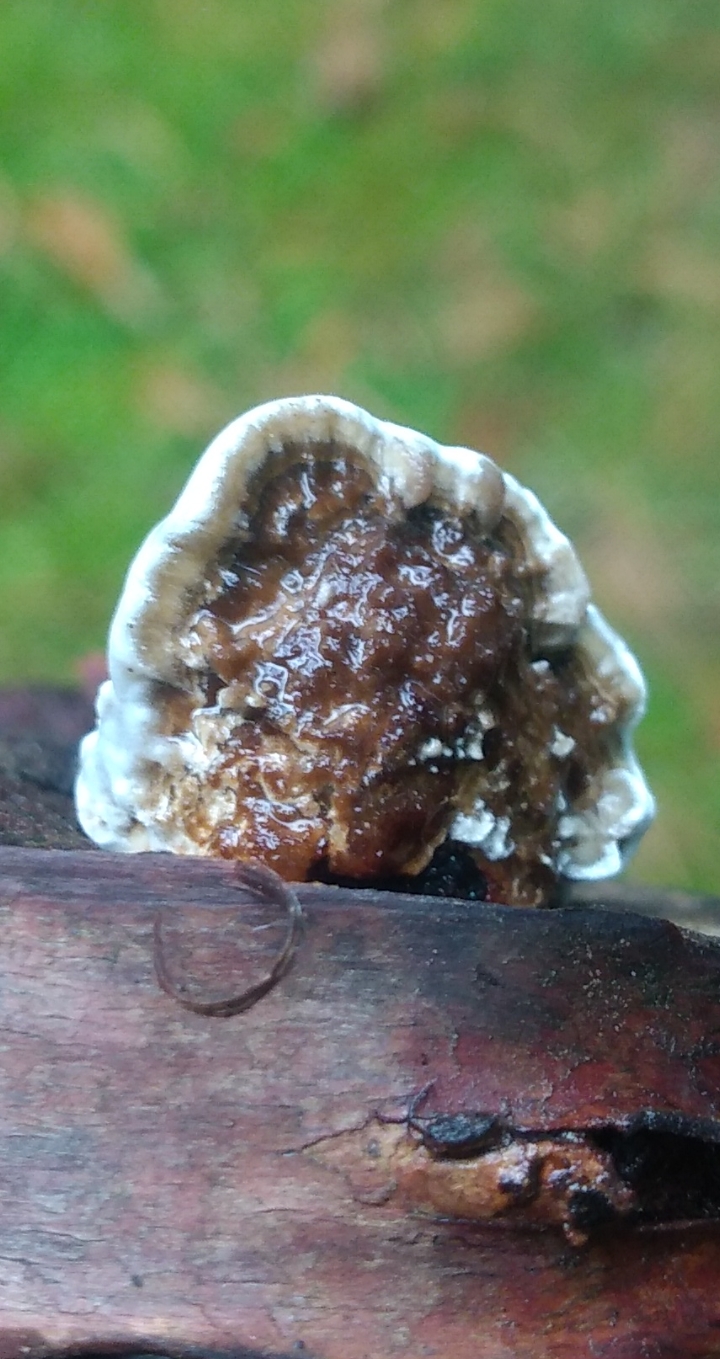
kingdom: Fungi
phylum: Basidiomycota
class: Agaricomycetes
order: Polyporales
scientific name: Polyporales
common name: poresvampordenen
